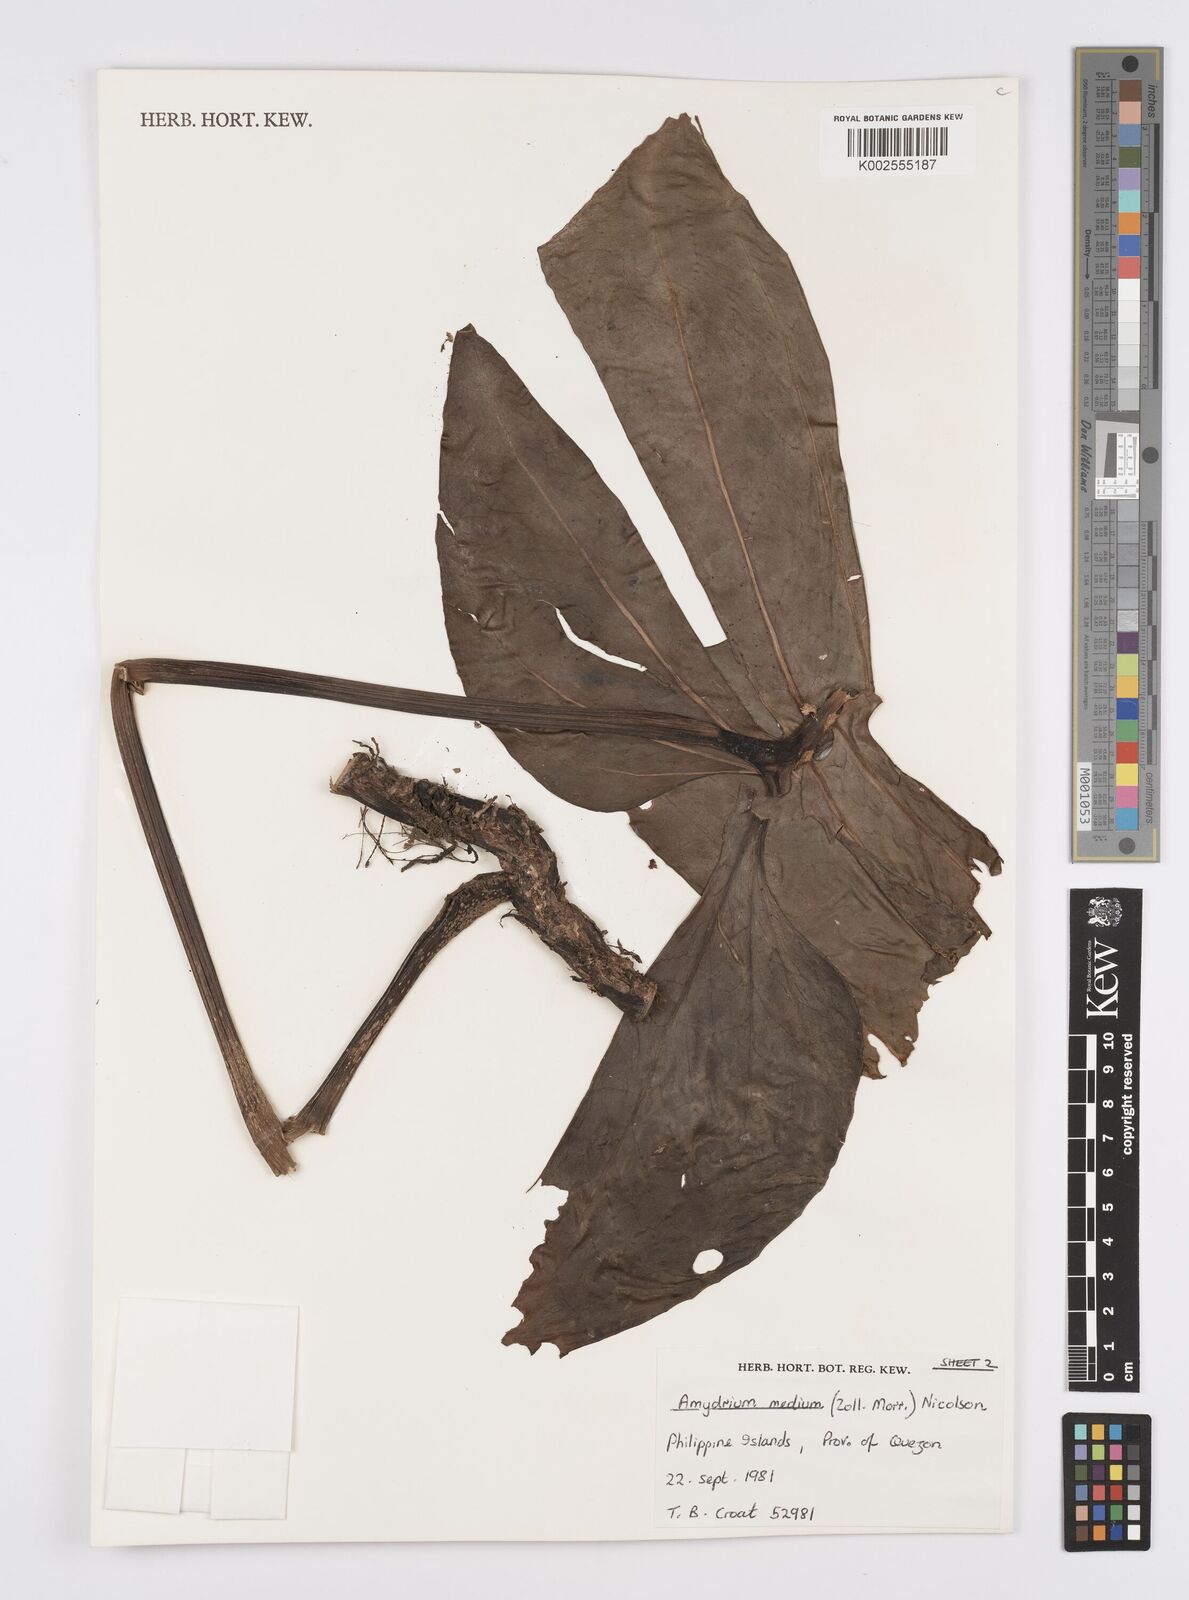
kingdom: Plantae
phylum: Tracheophyta
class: Liliopsida
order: Alismatales
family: Araceae
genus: Amydrium
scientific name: Amydrium medium
